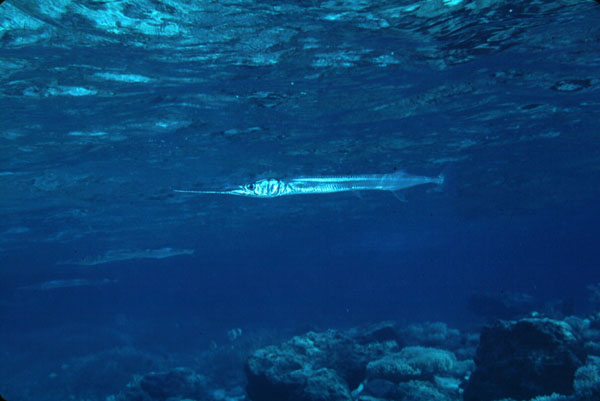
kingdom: Animalia
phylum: Chordata
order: Beloniformes
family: Belonidae
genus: Tylosurus
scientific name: Tylosurus
